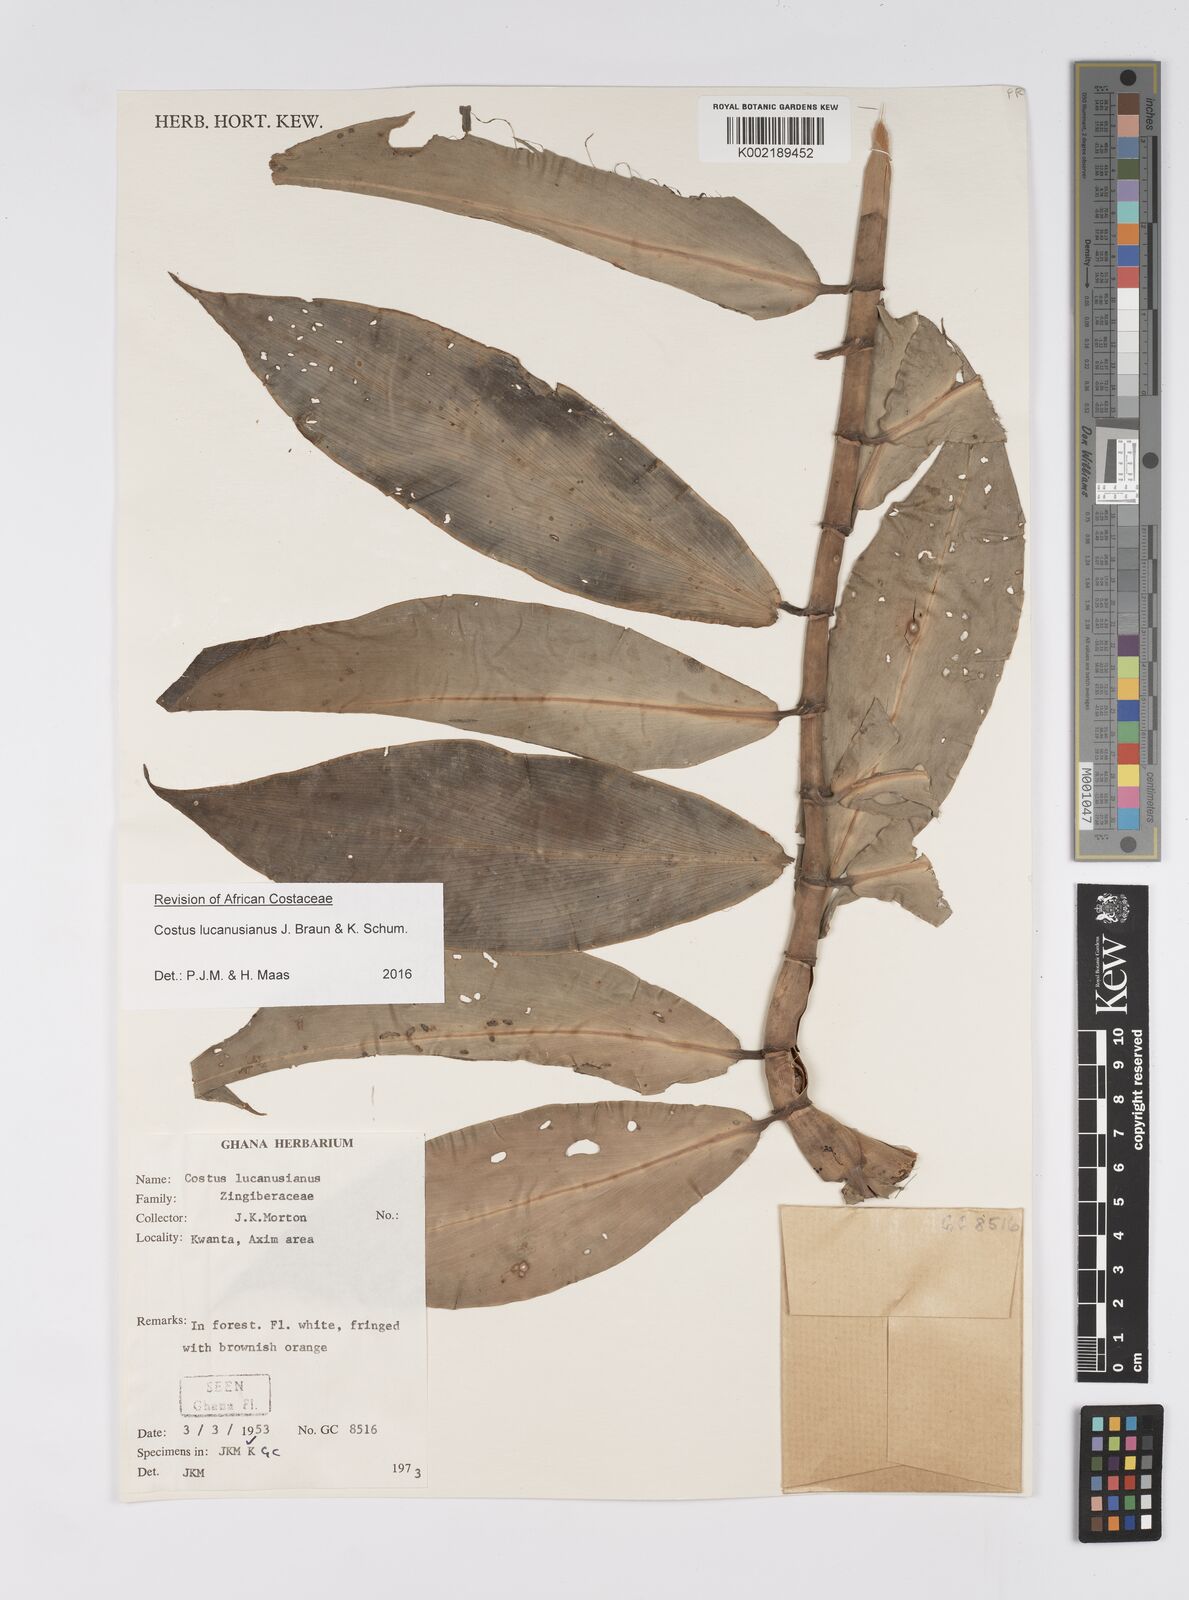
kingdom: Plantae
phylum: Tracheophyta
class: Liliopsida
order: Zingiberales
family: Costaceae
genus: Costus
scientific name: Costus lucanusianus
